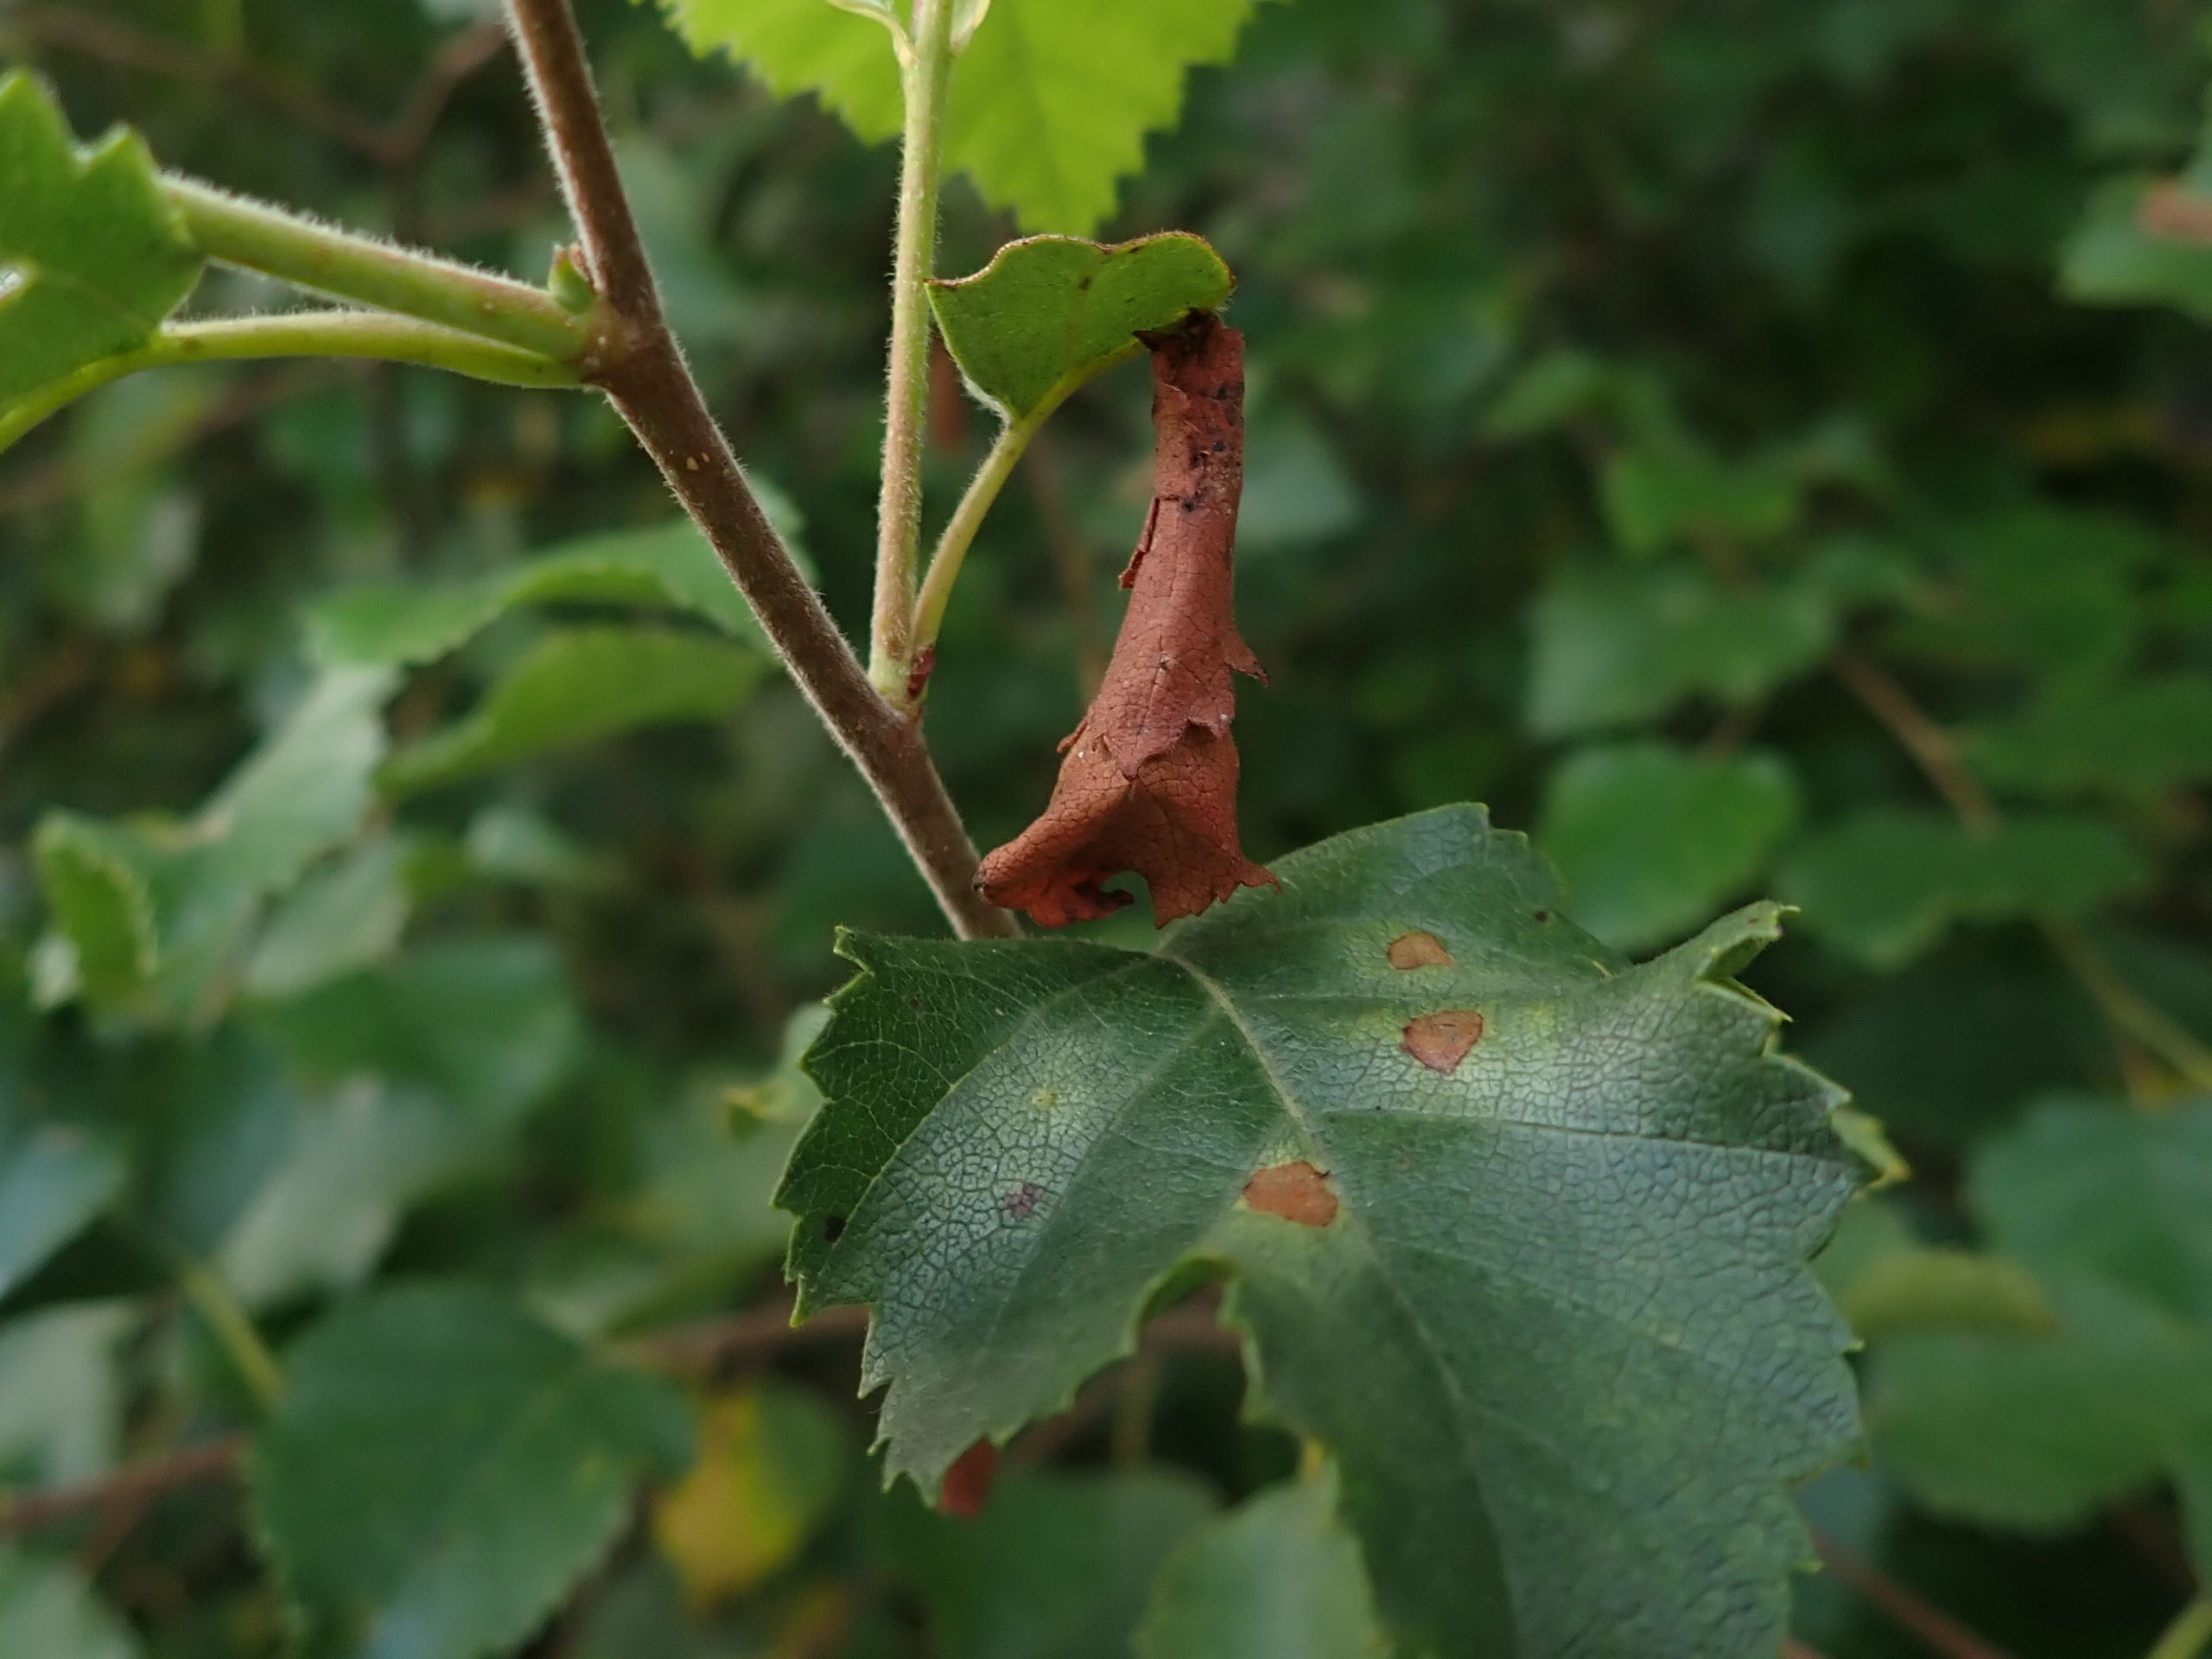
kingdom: Animalia
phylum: Arthropoda
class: Insecta
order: Coleoptera
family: Attelabidae
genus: Byctiscus
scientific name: Byctiscus betulae
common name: Birkebladruller
